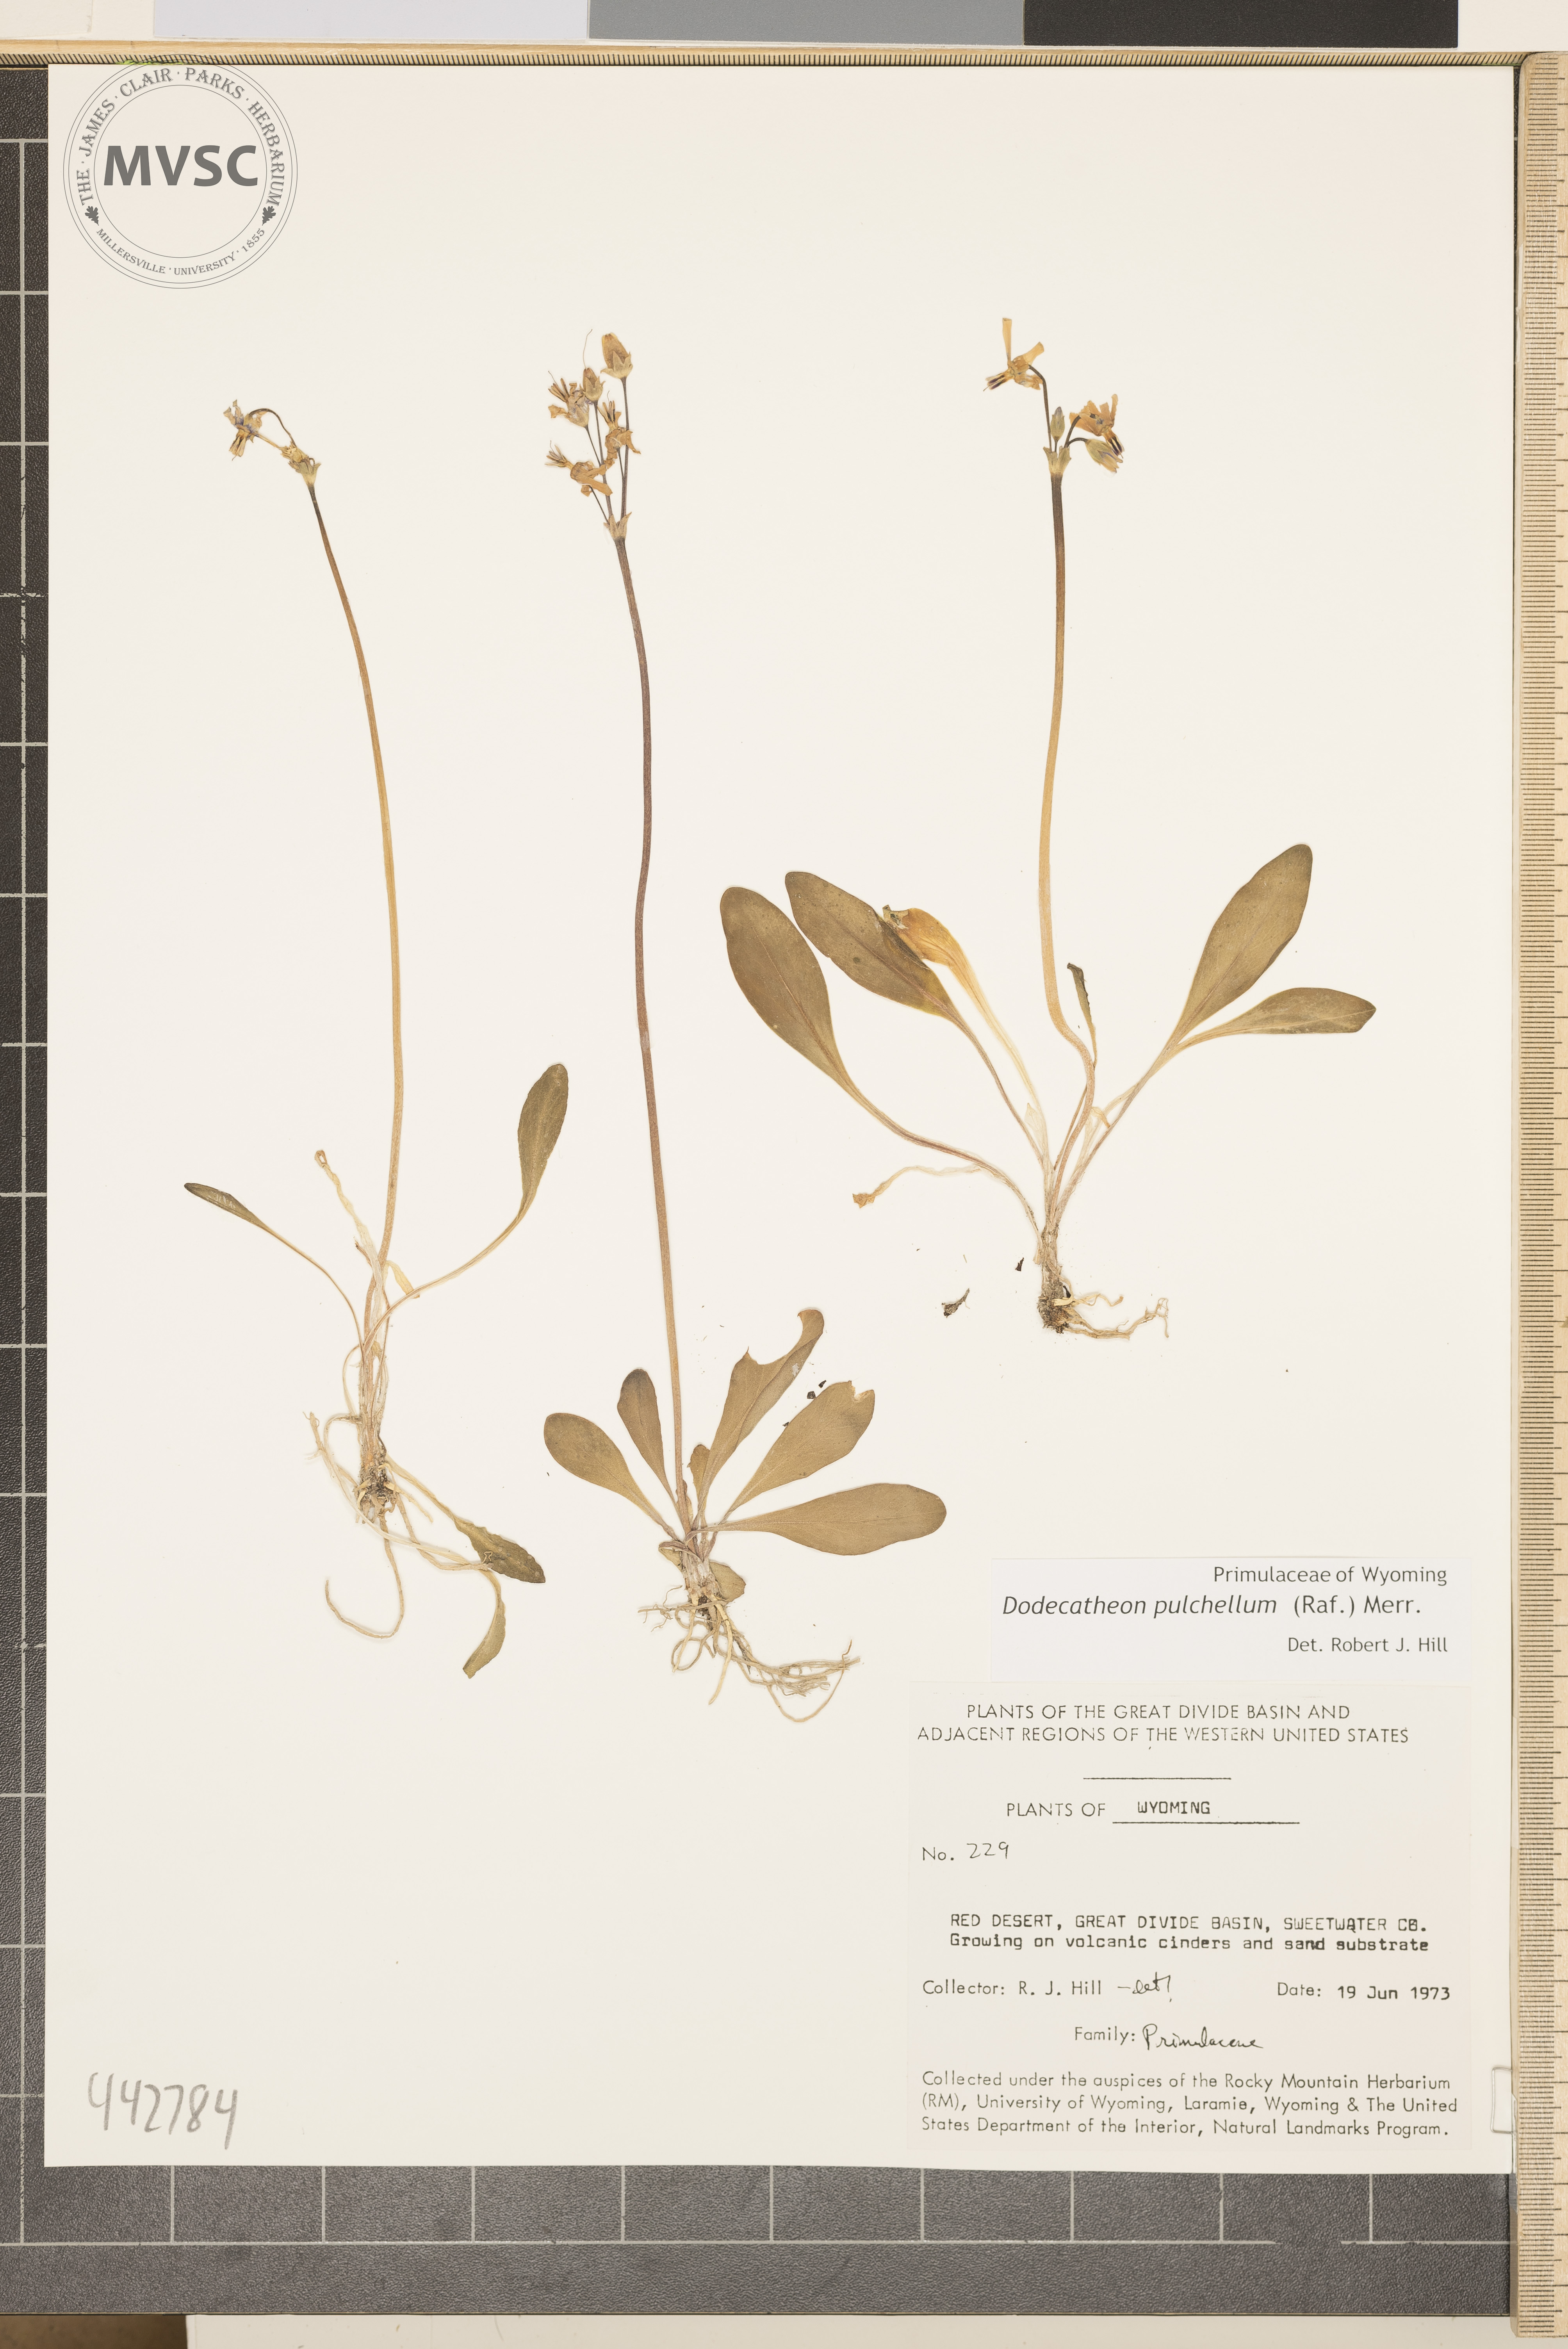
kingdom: Plantae
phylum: Tracheophyta
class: Magnoliopsida
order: Ericales
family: Primulaceae
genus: Dodecatheon
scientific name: Dodecatheon pulchellum
